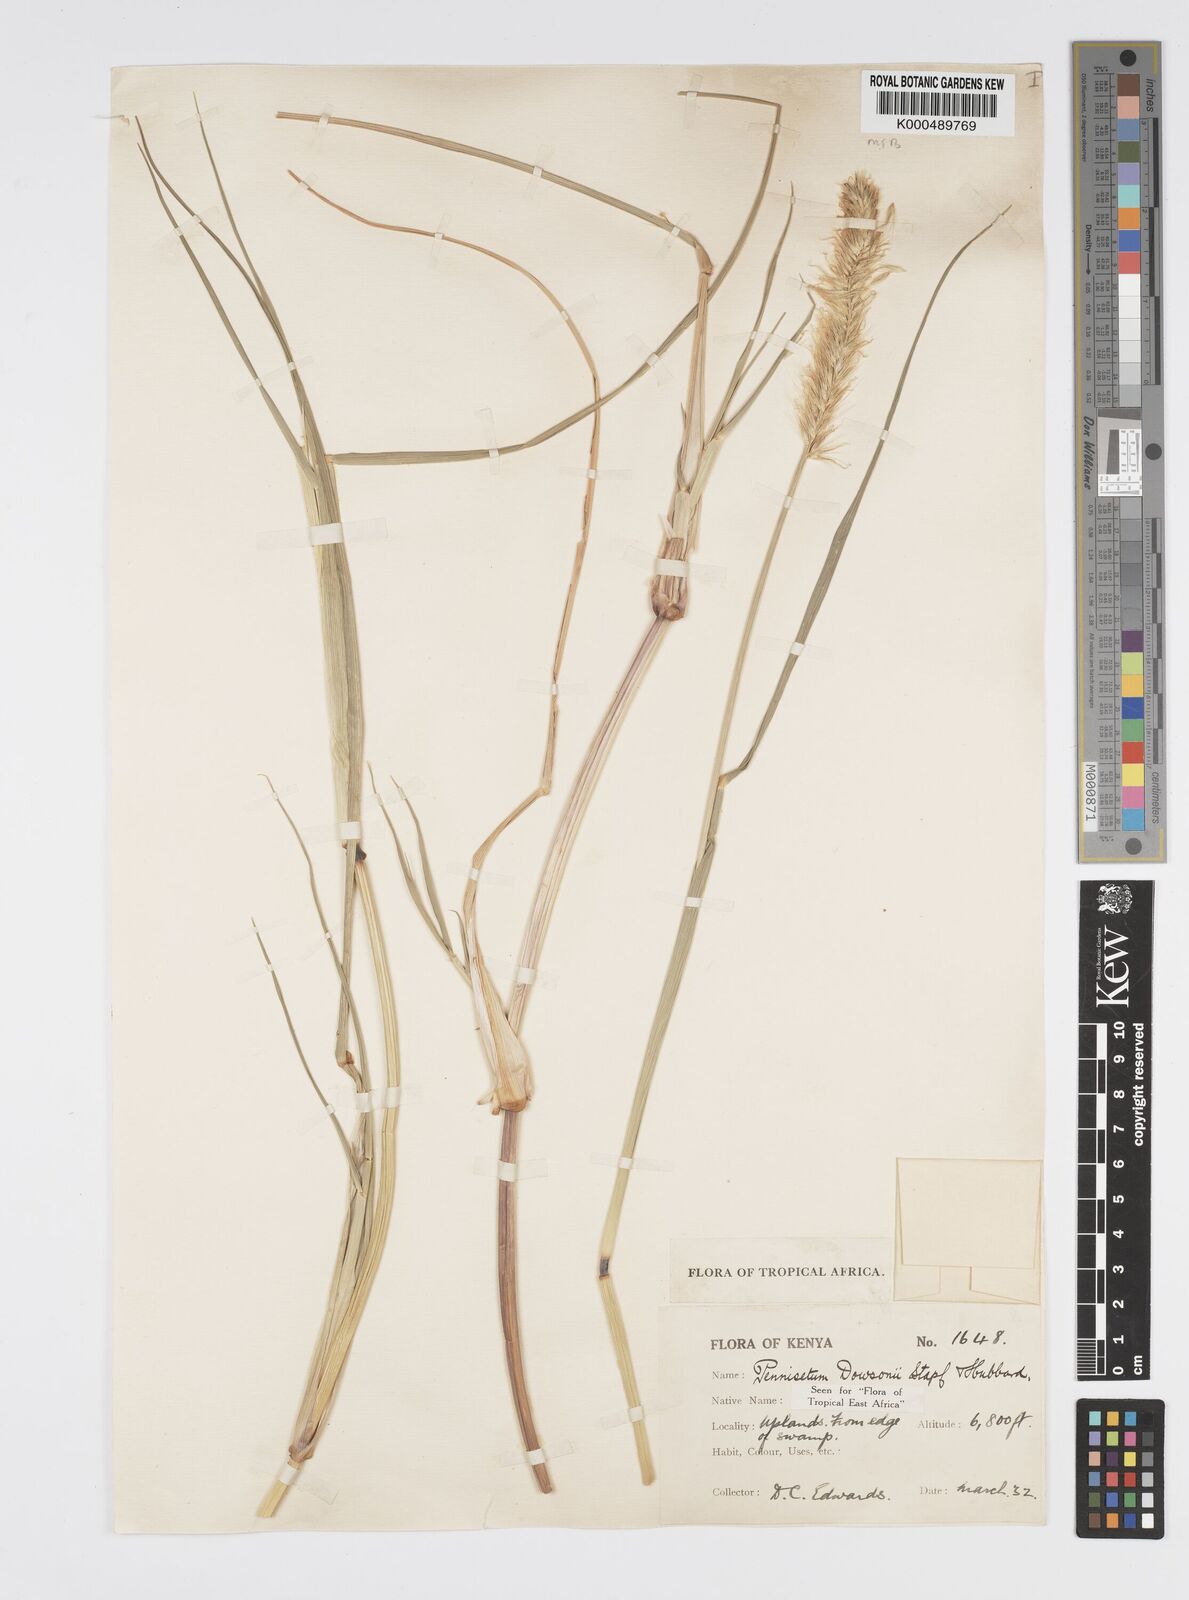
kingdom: Plantae
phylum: Tracheophyta
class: Liliopsida
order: Poales
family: Poaceae
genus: Cenchrus
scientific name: Cenchrus Pennisetum spec
